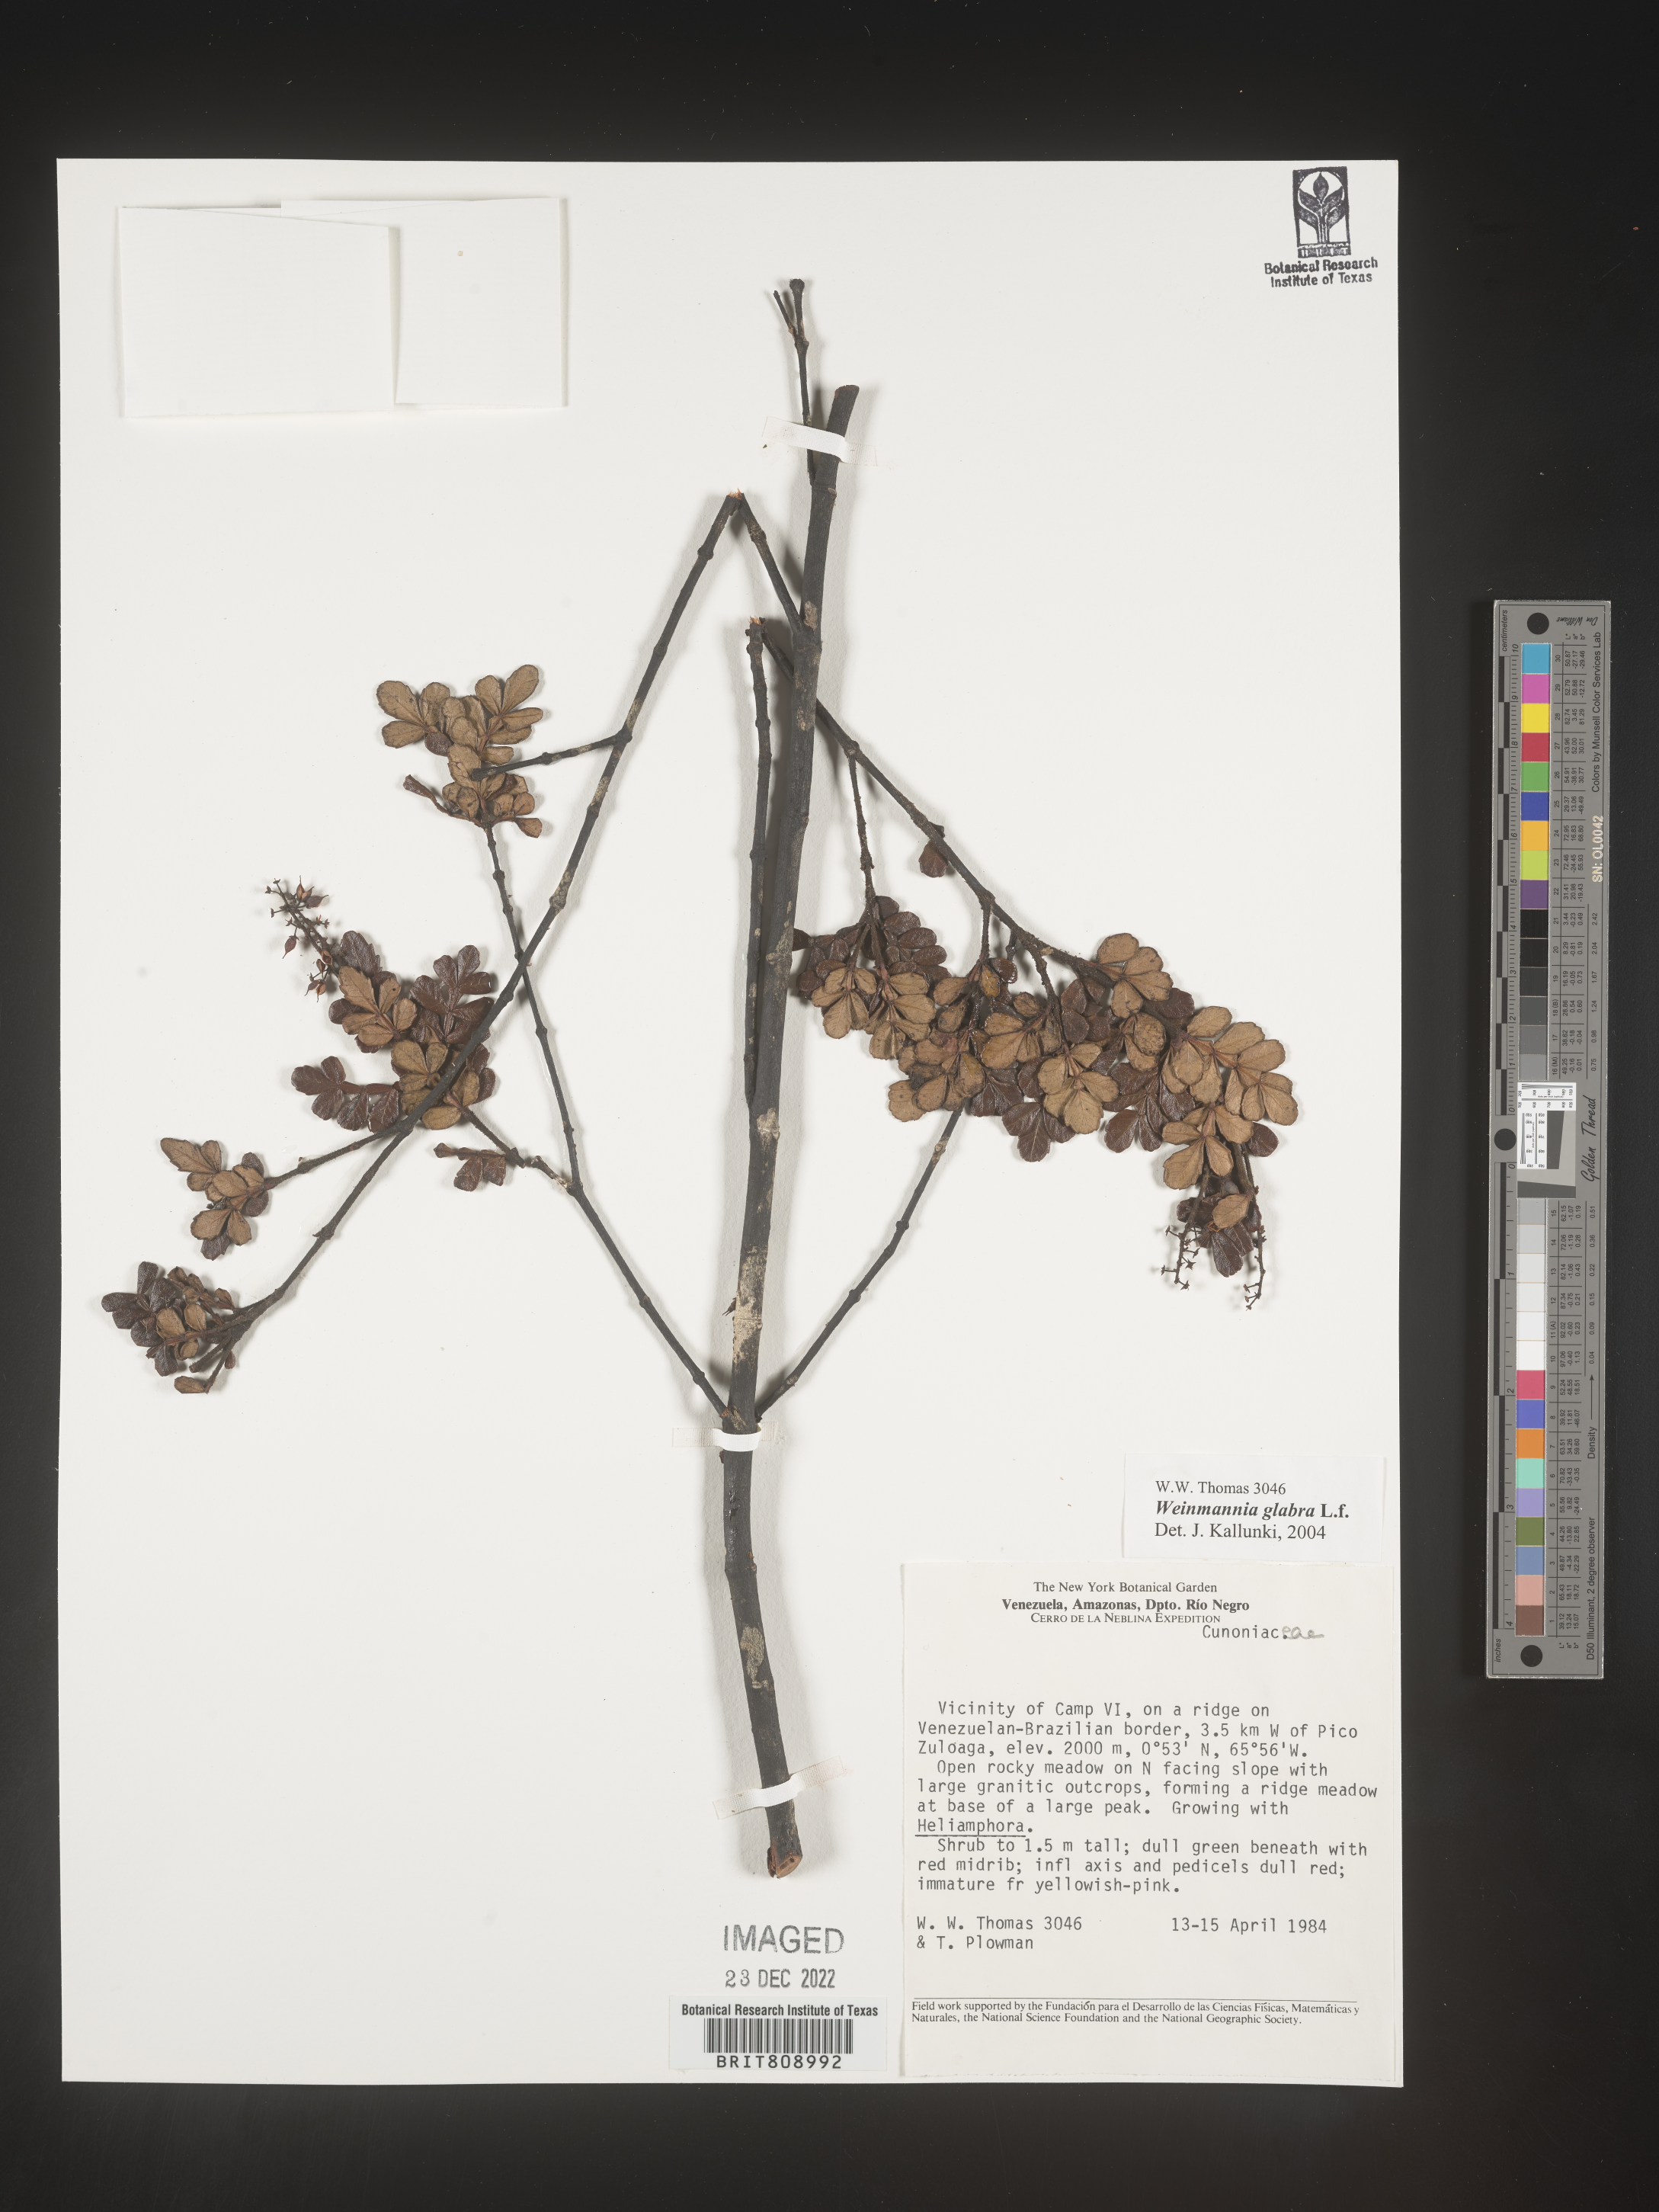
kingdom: Plantae
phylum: Tracheophyta
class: Magnoliopsida
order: Oxalidales
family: Cunoniaceae
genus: Weinmannia
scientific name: Weinmannia
